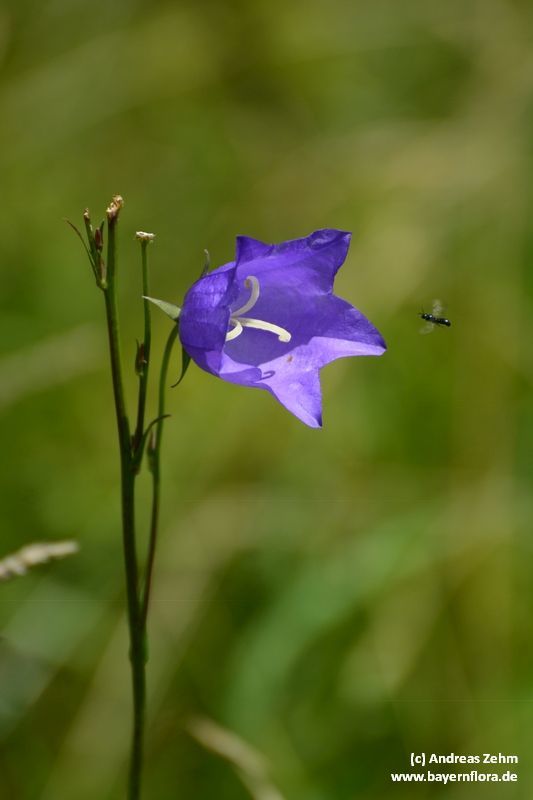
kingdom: Plantae
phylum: Tracheophyta
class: Magnoliopsida
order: Asterales
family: Campanulaceae
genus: Campanula
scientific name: Campanula persicifolia
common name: Peach-leaved bellflower
